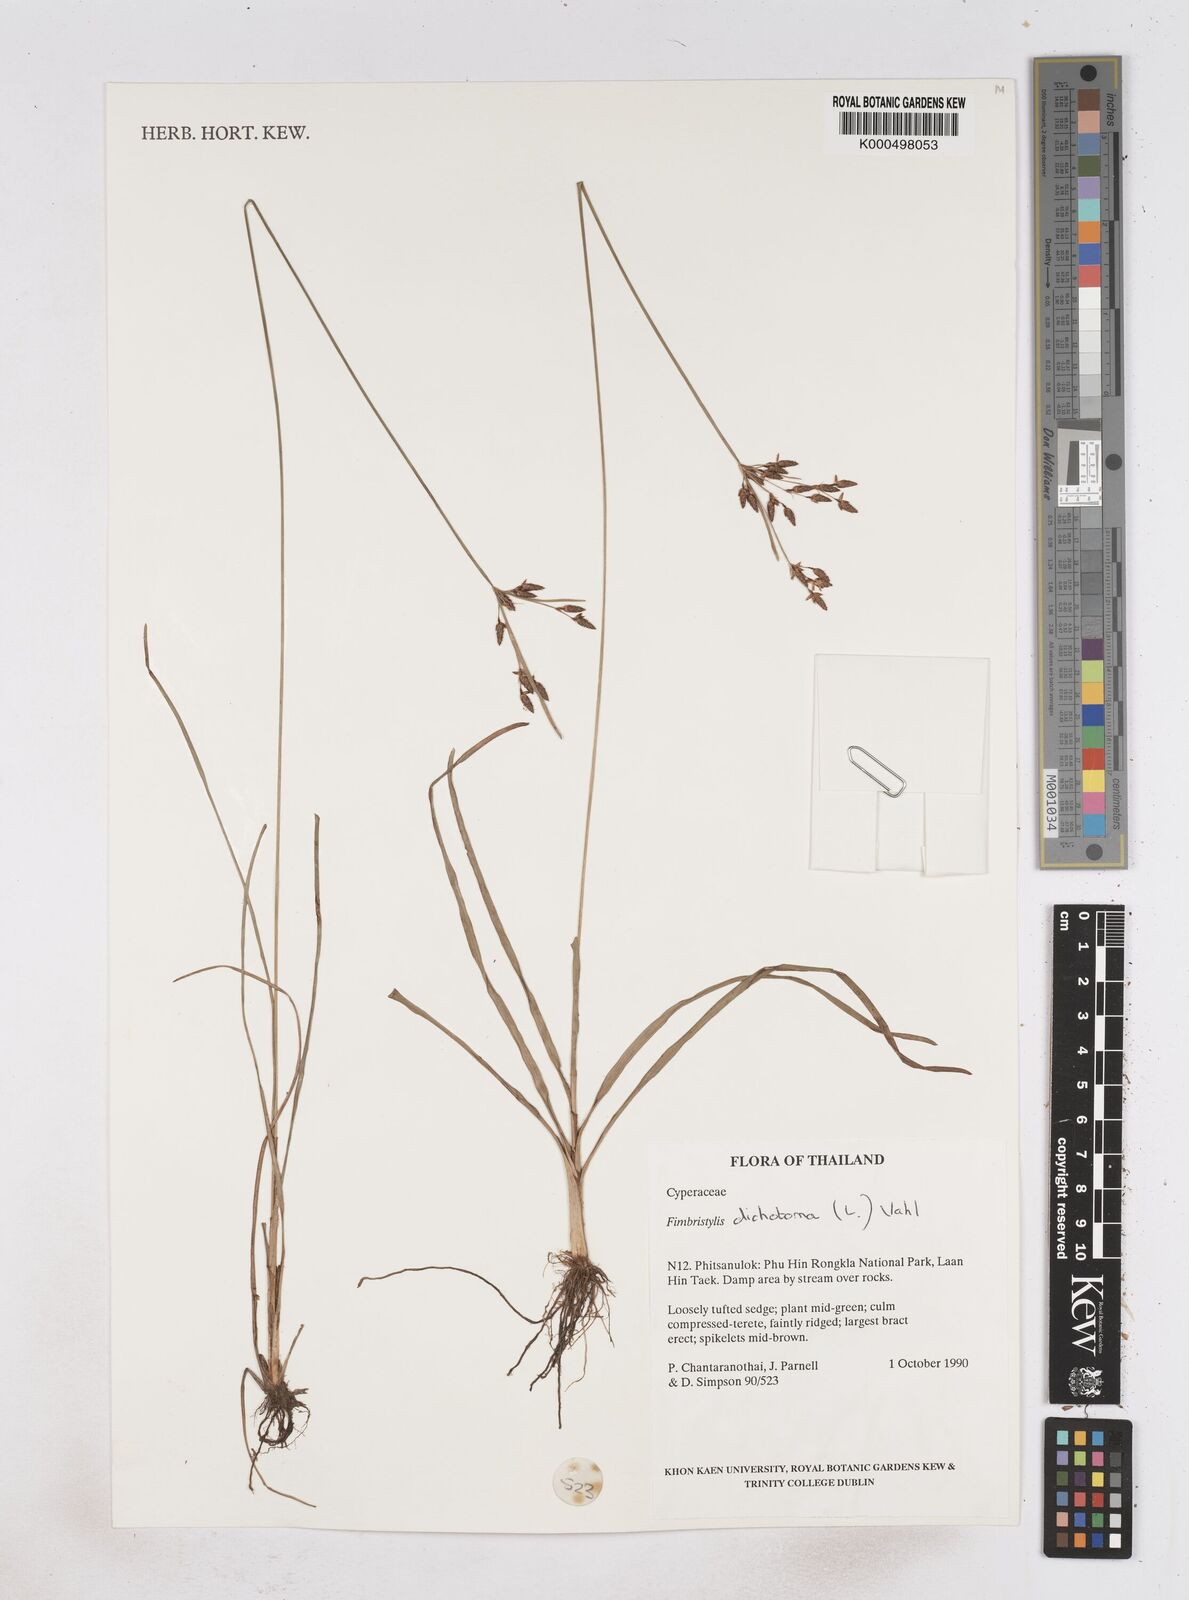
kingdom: Plantae
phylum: Tracheophyta
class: Liliopsida
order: Poales
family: Cyperaceae
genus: Fimbristylis
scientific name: Fimbristylis dichotoma
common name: Forked fimbry
